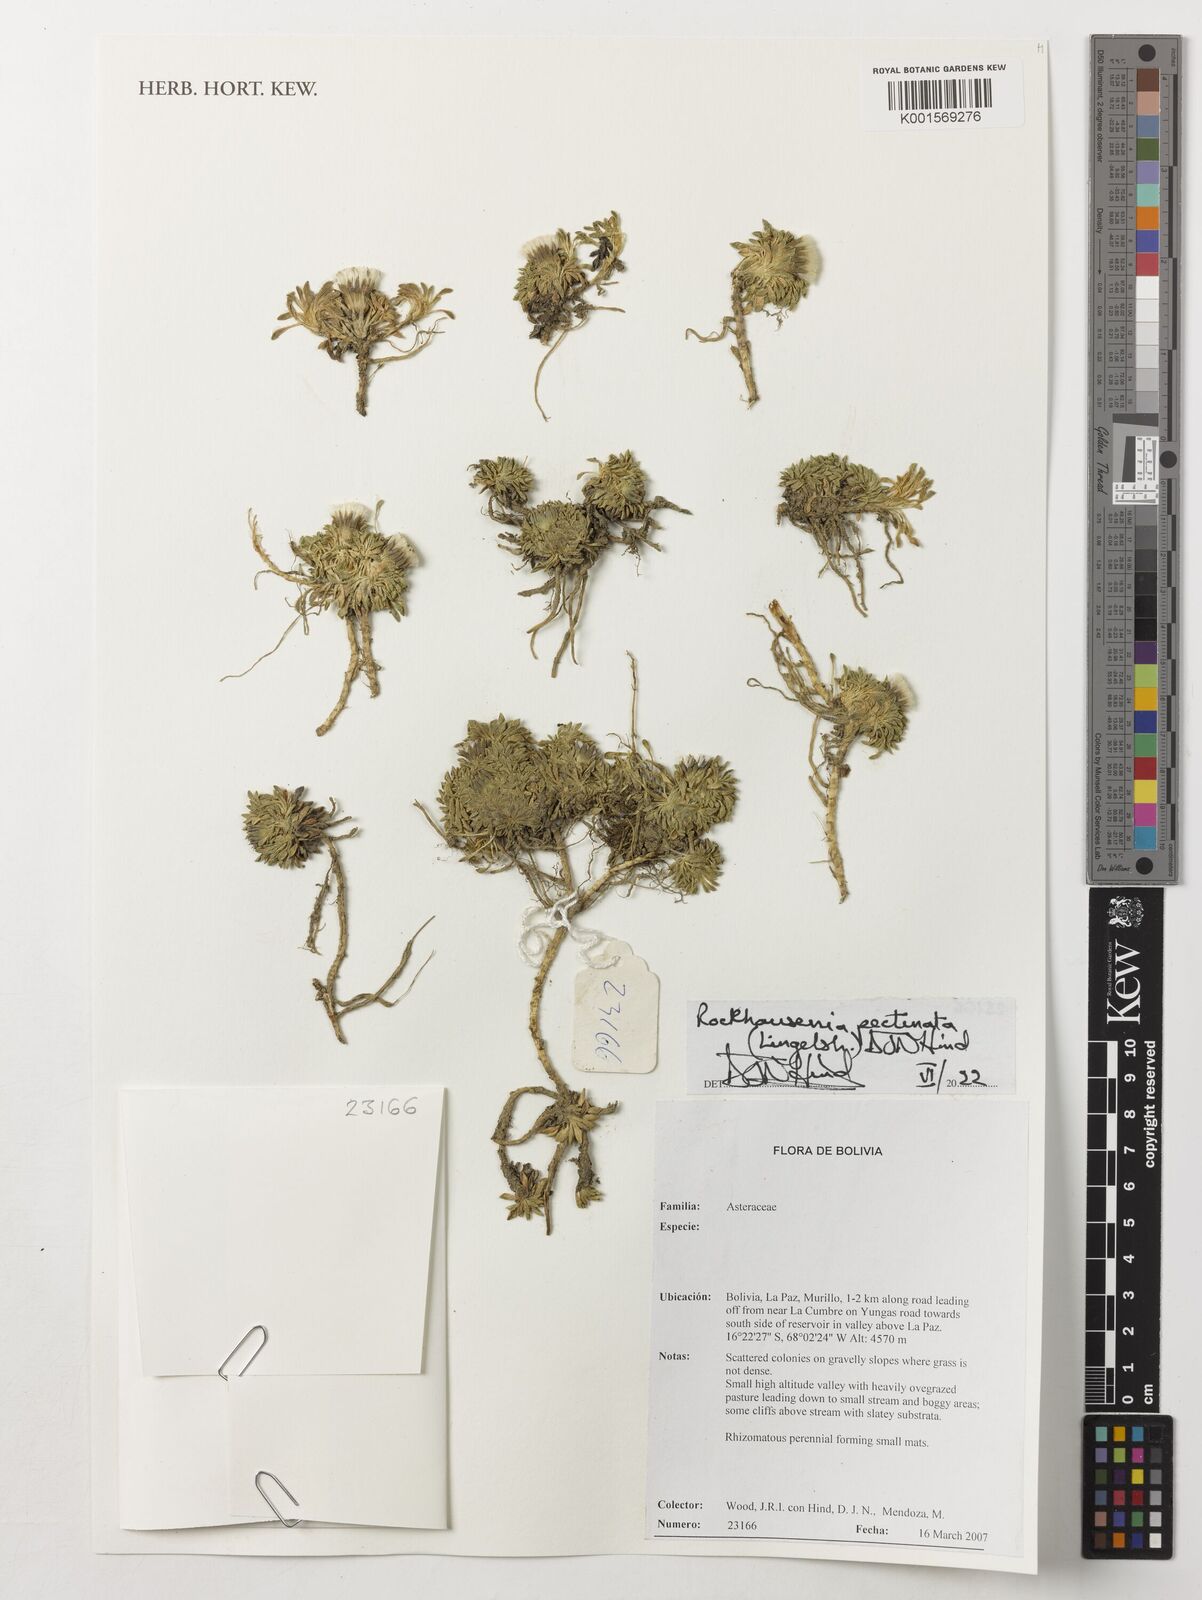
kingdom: Plantae
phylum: Tracheophyta
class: Magnoliopsida
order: Asterales
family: Asteraceae
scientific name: Asteraceae
